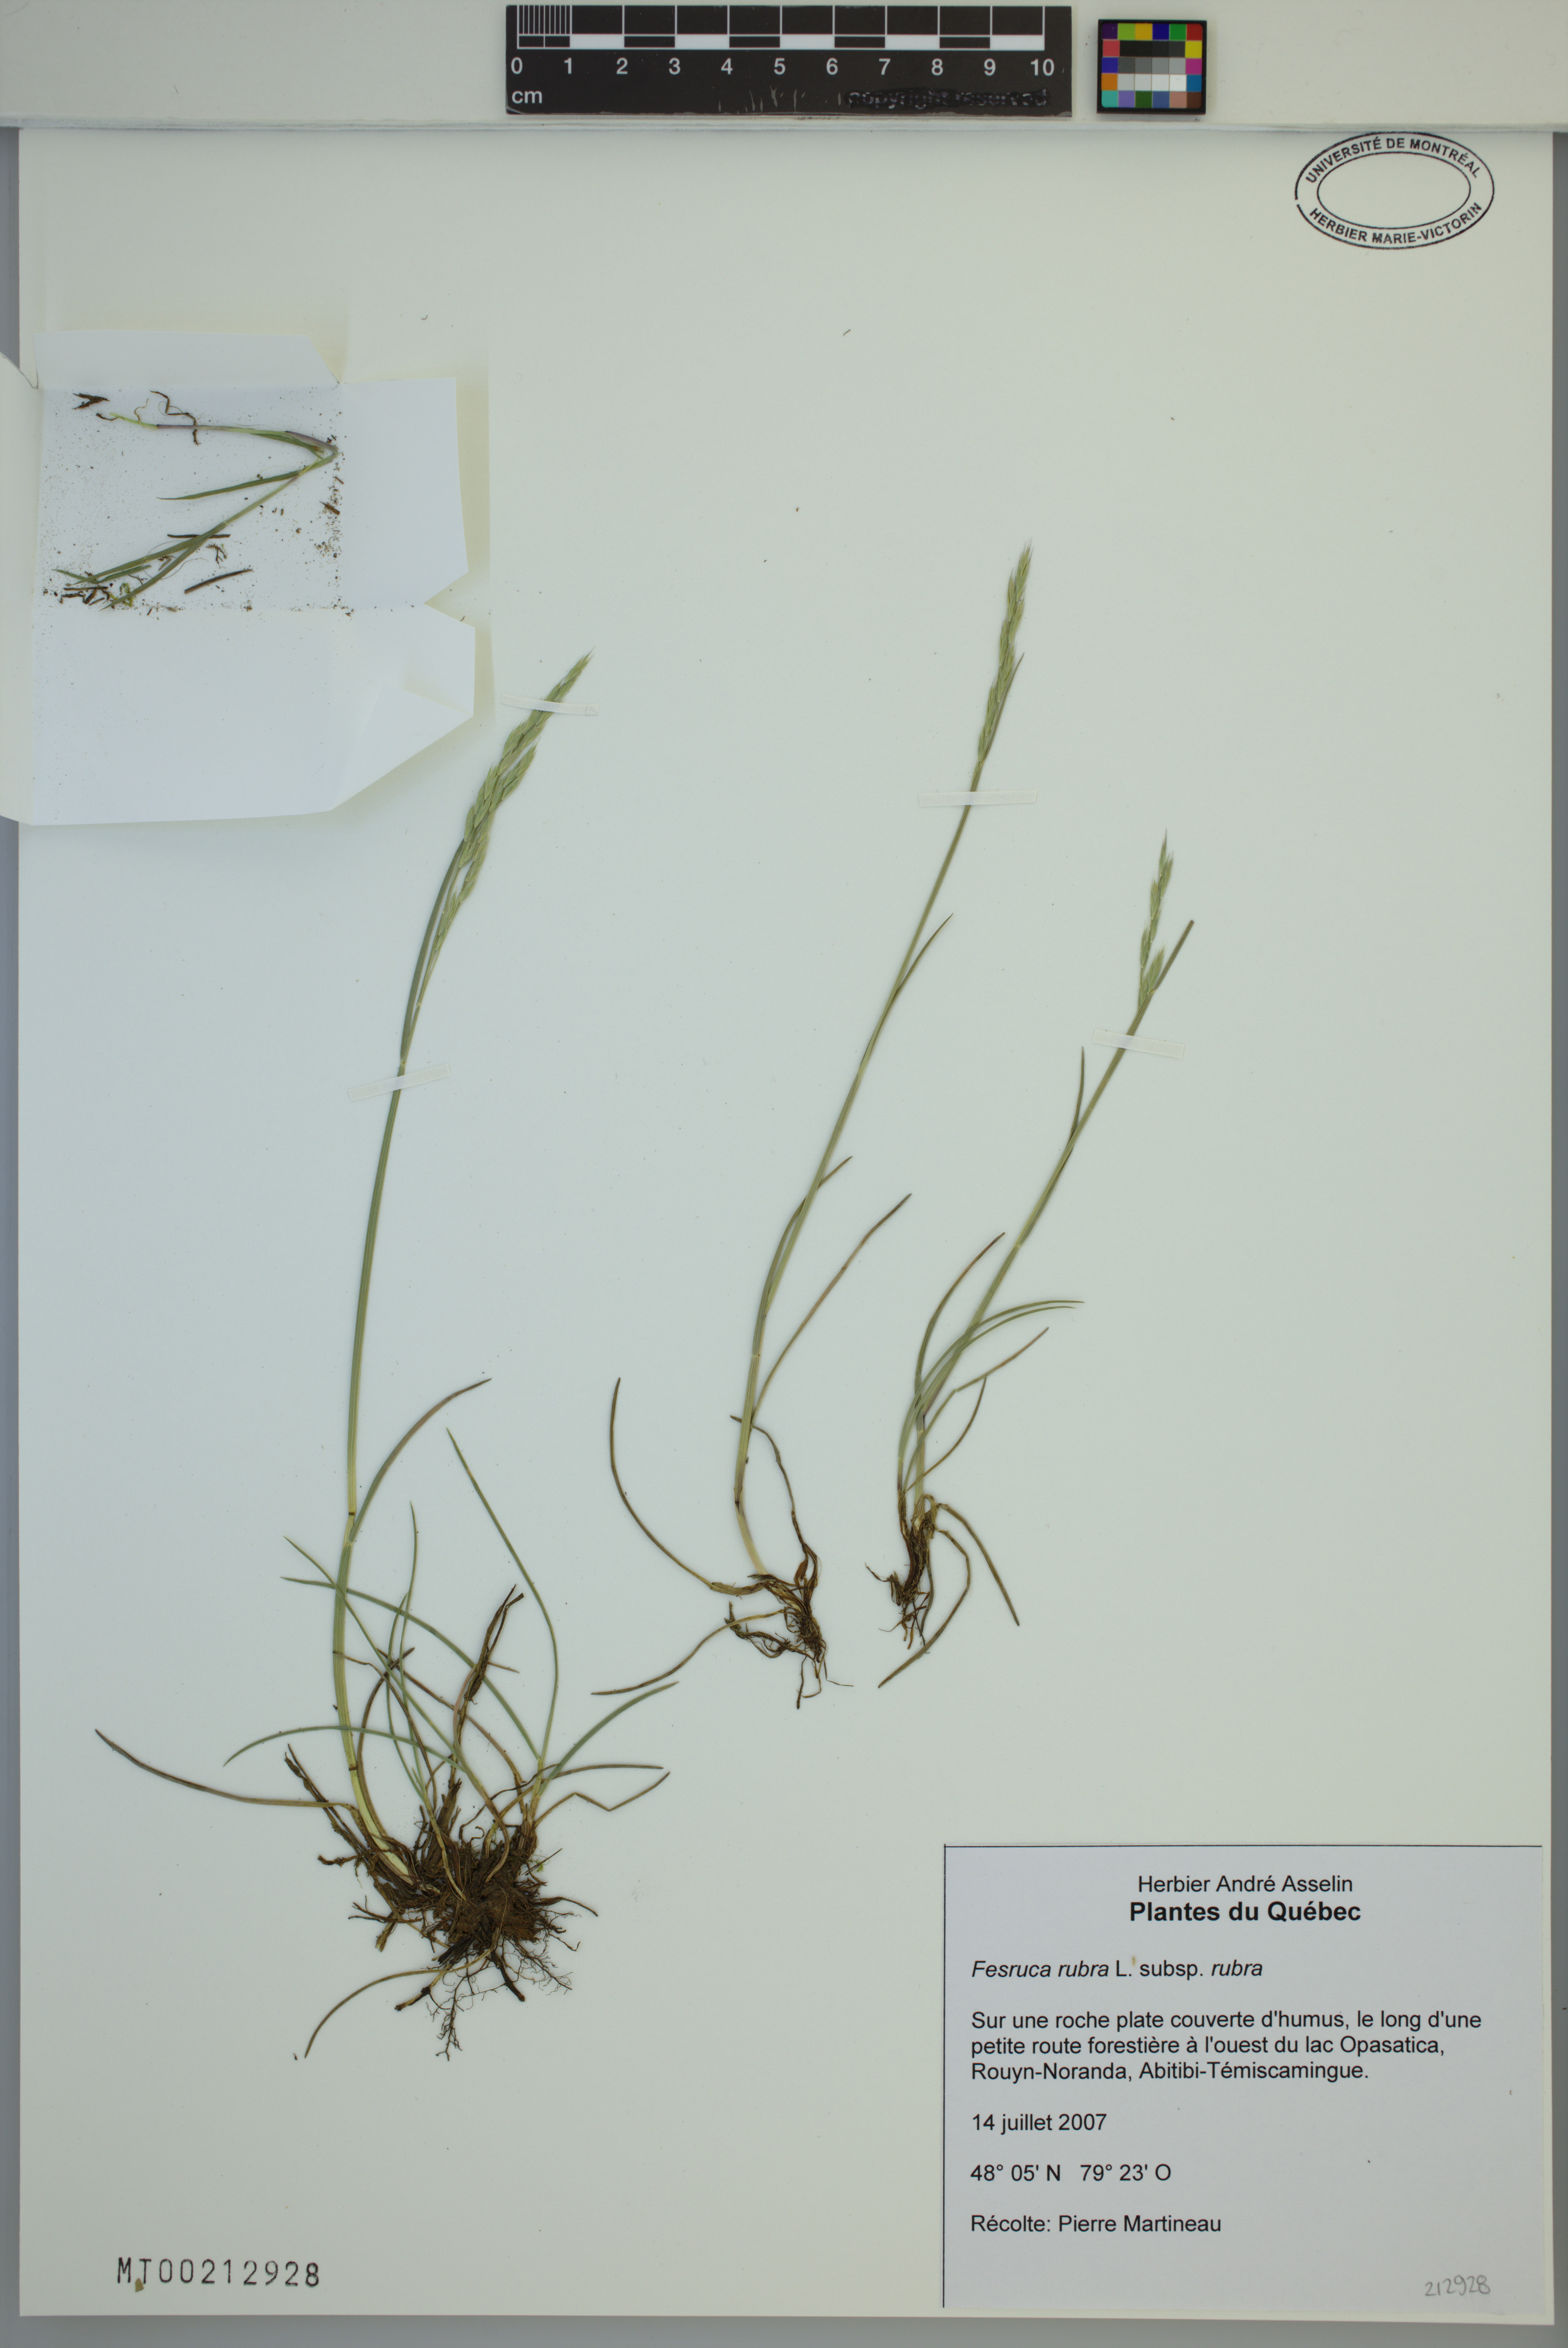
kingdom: Plantae
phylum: Tracheophyta
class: Liliopsida
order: Poales
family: Poaceae
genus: Festuca
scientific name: Festuca rubra
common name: Red fescue
